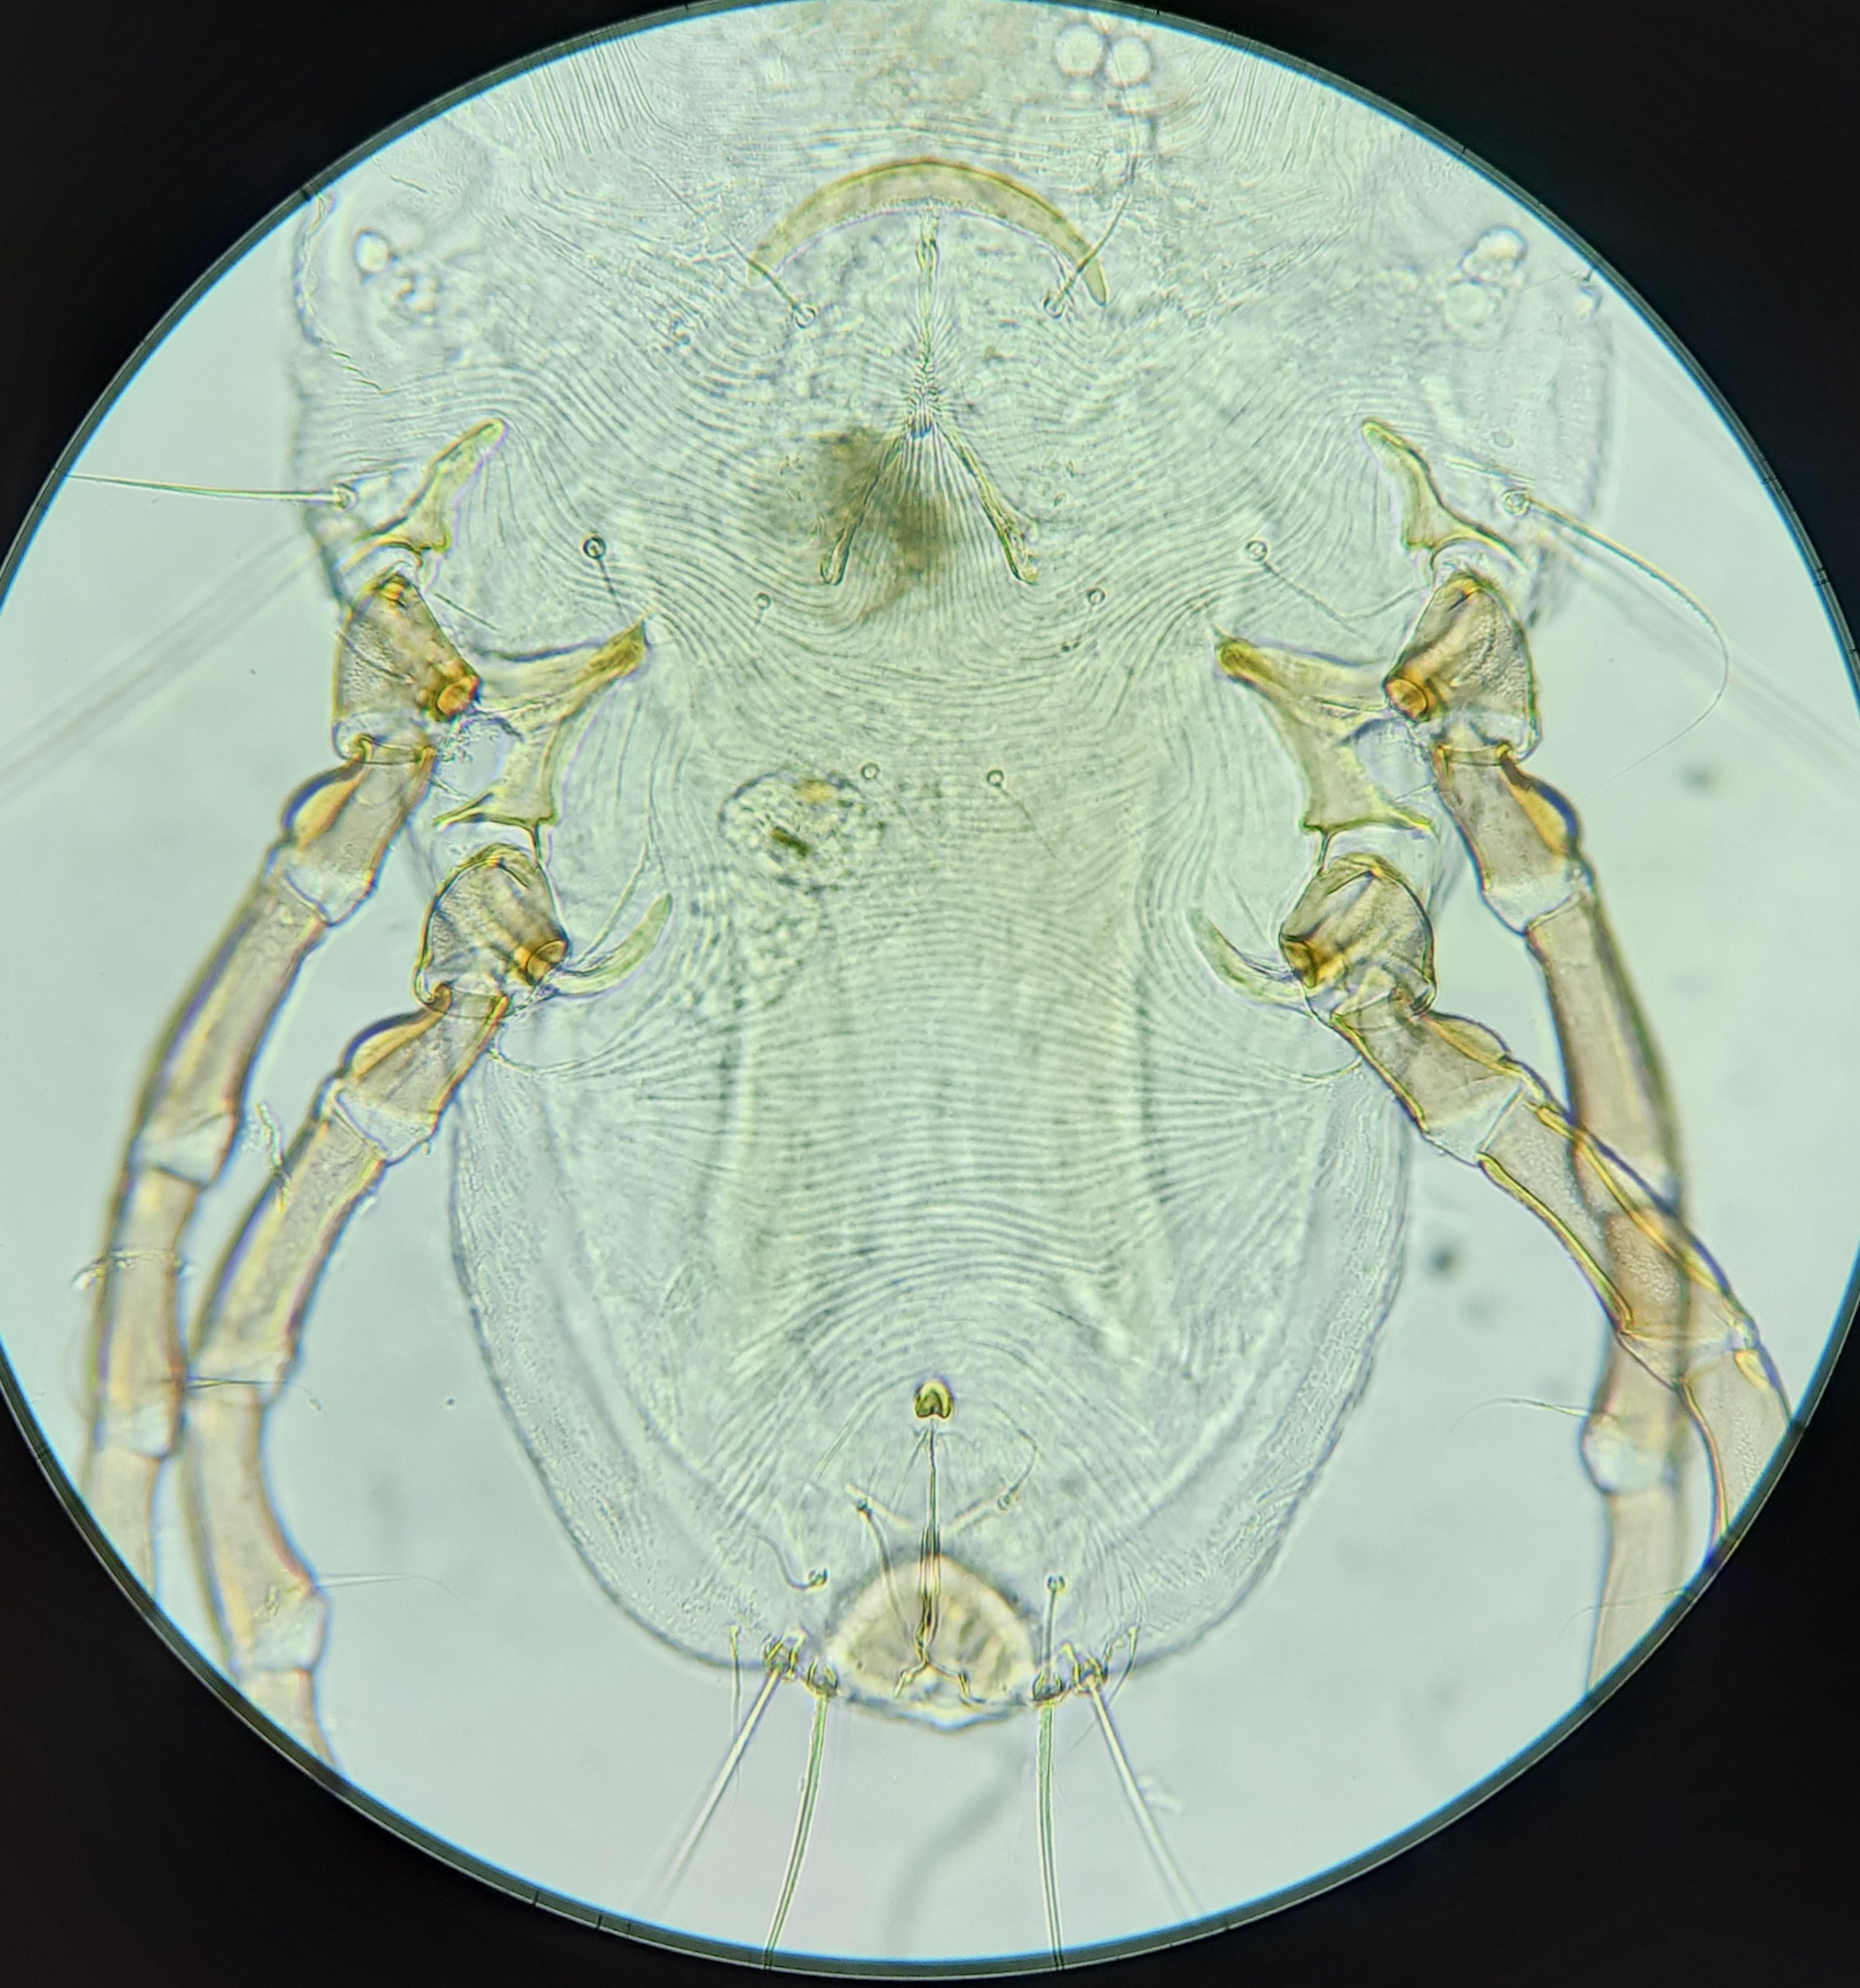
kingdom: Animalia
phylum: Arthropoda
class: Arachnida
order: Sarcoptiformes
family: Pterolichidae
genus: Ardeacarus
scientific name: Ardeacarus ardeae
